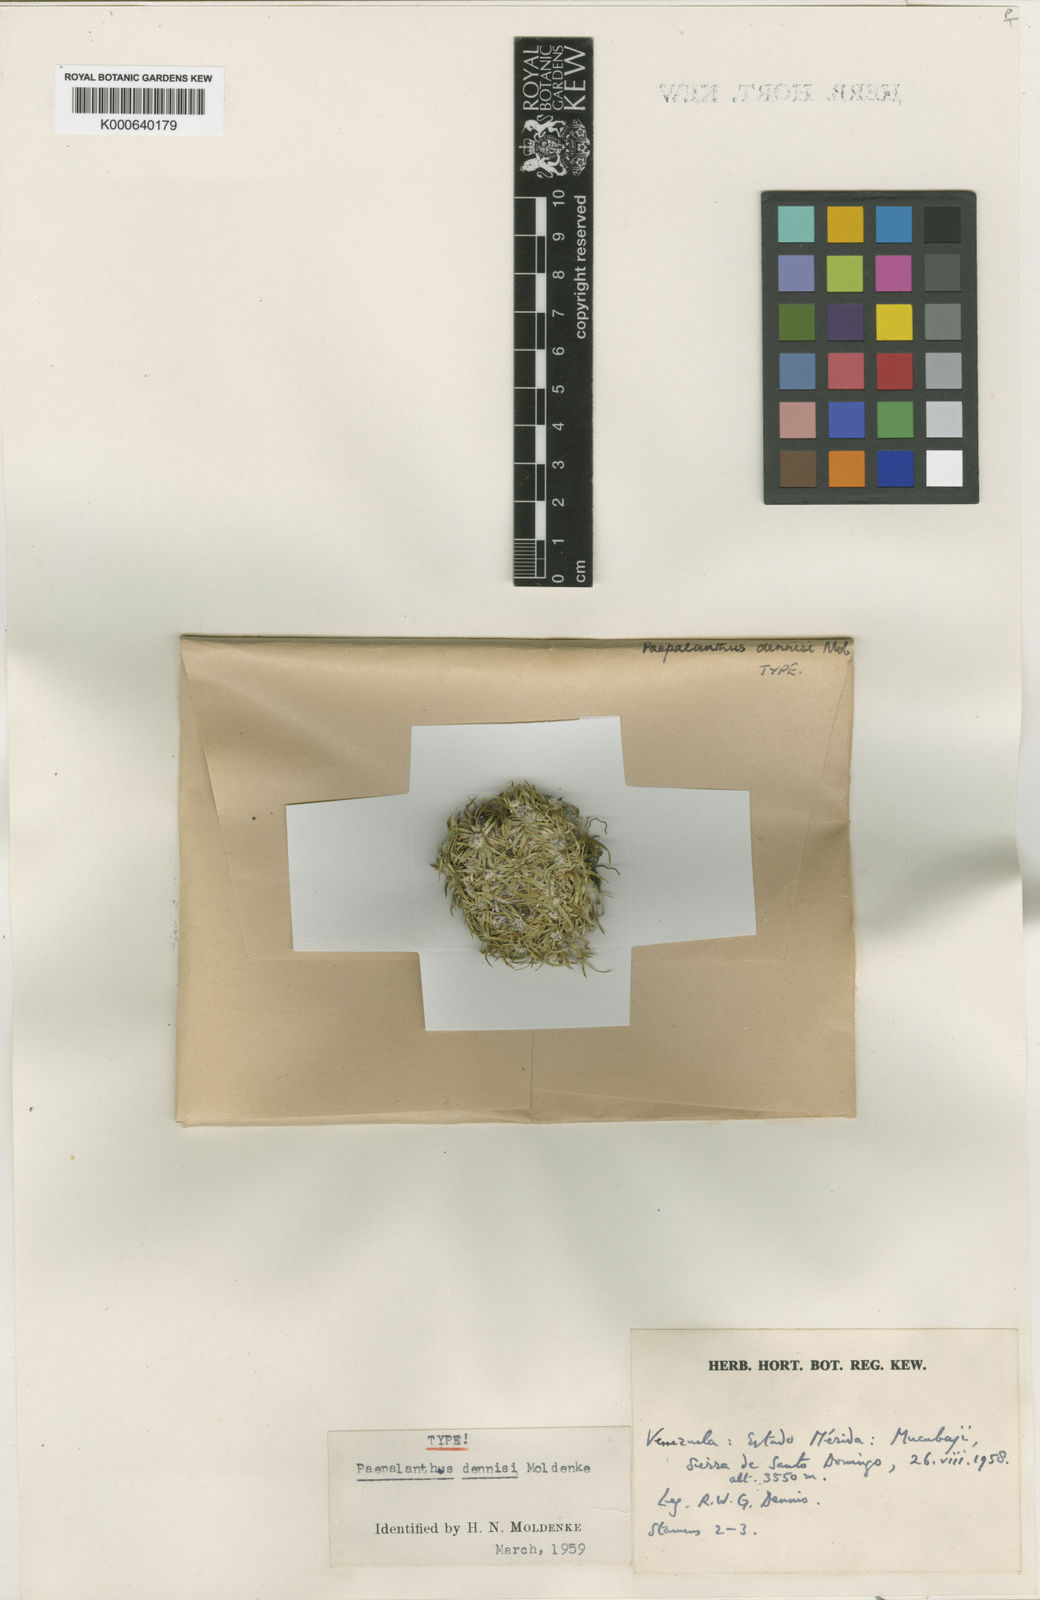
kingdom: Plantae
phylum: Tracheophyta
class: Liliopsida
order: Poales
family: Eriocaulaceae
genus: Paepalanthus
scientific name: Paepalanthus pilosus
